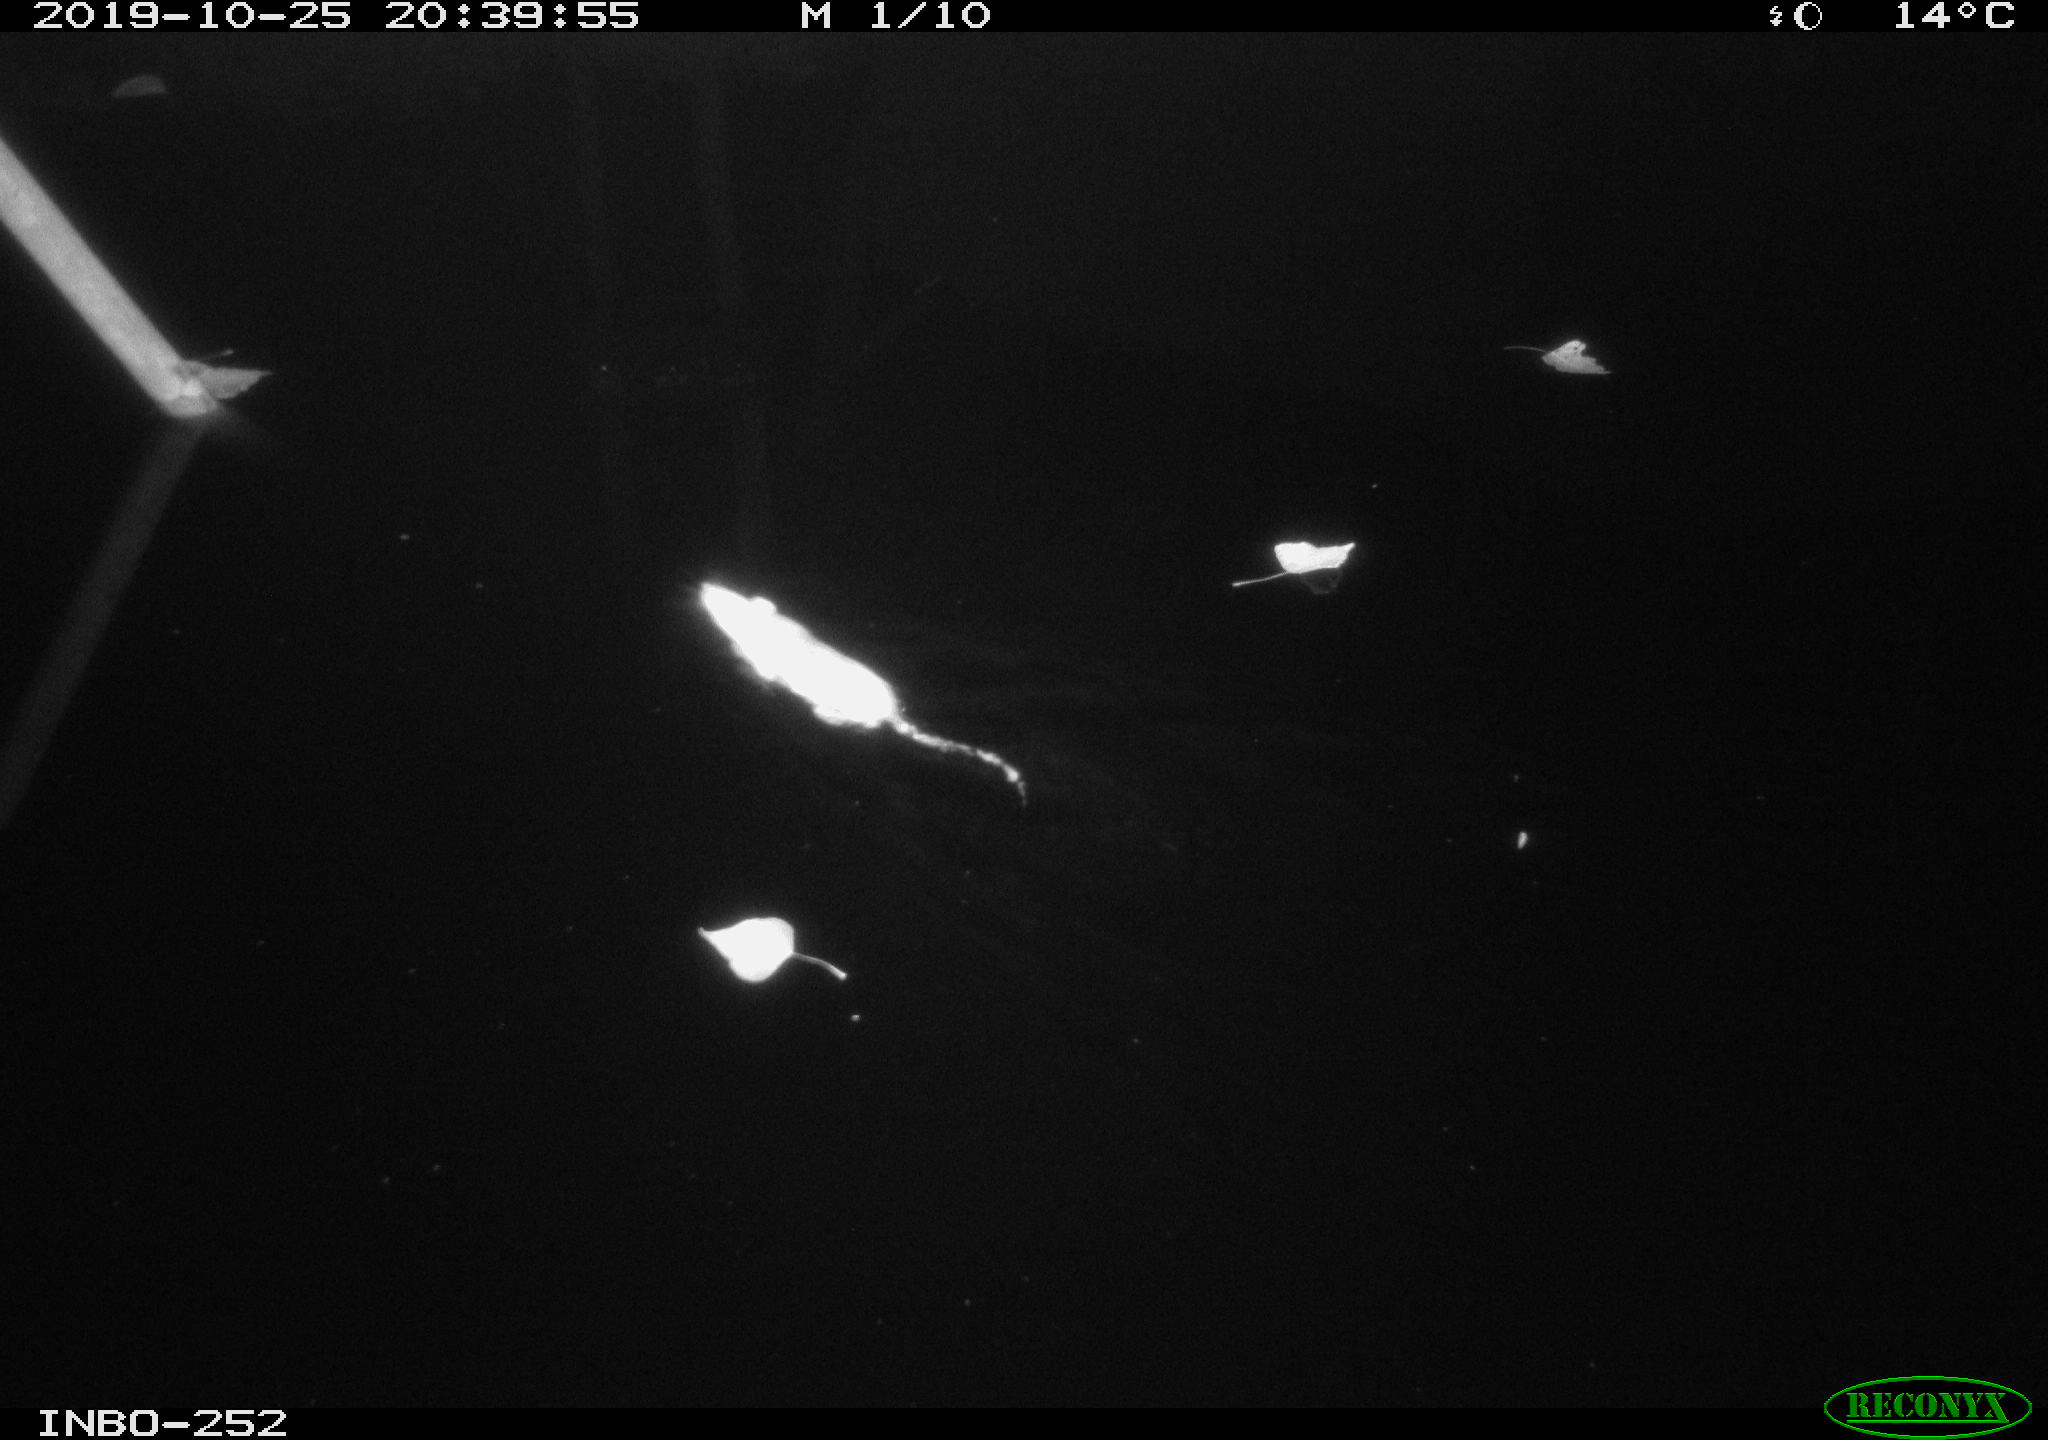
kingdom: Animalia
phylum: Chordata
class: Mammalia
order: Rodentia
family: Muridae
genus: Rattus
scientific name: Rattus norvegicus
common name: Brown rat
